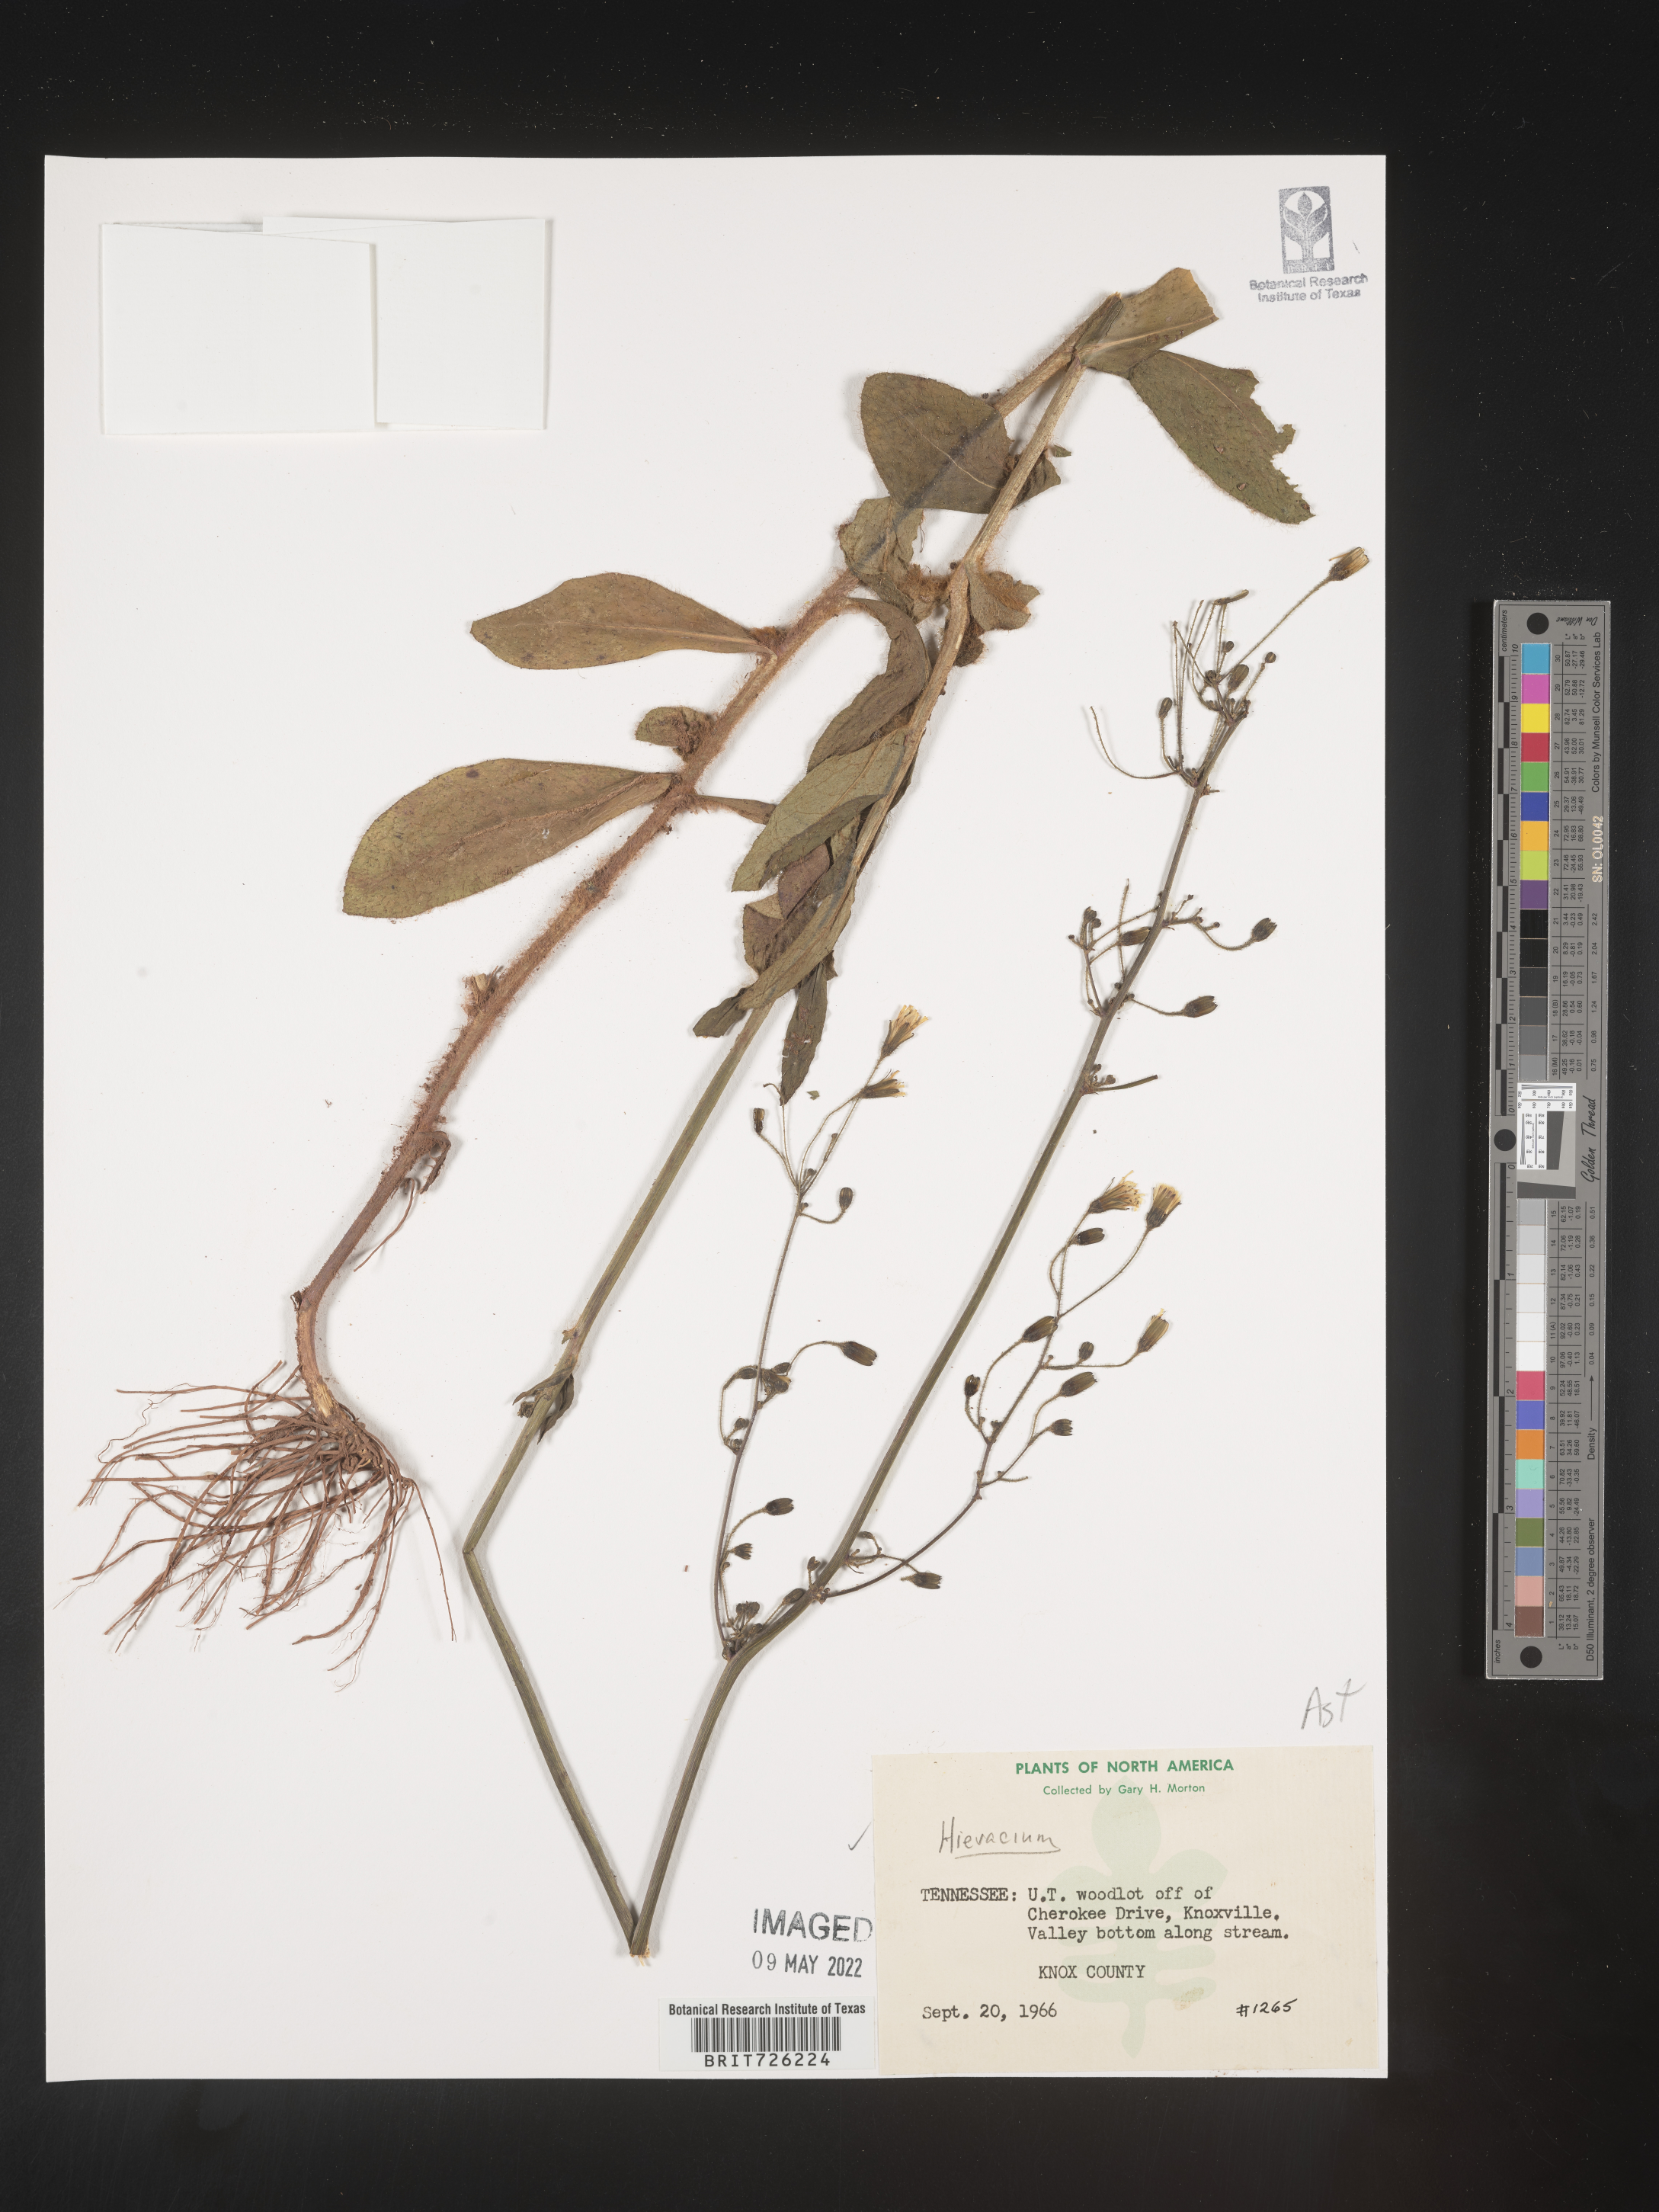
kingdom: Plantae
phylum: Tracheophyta
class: Magnoliopsida
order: Asterales
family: Asteraceae
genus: Hieracium
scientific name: Hieracium
